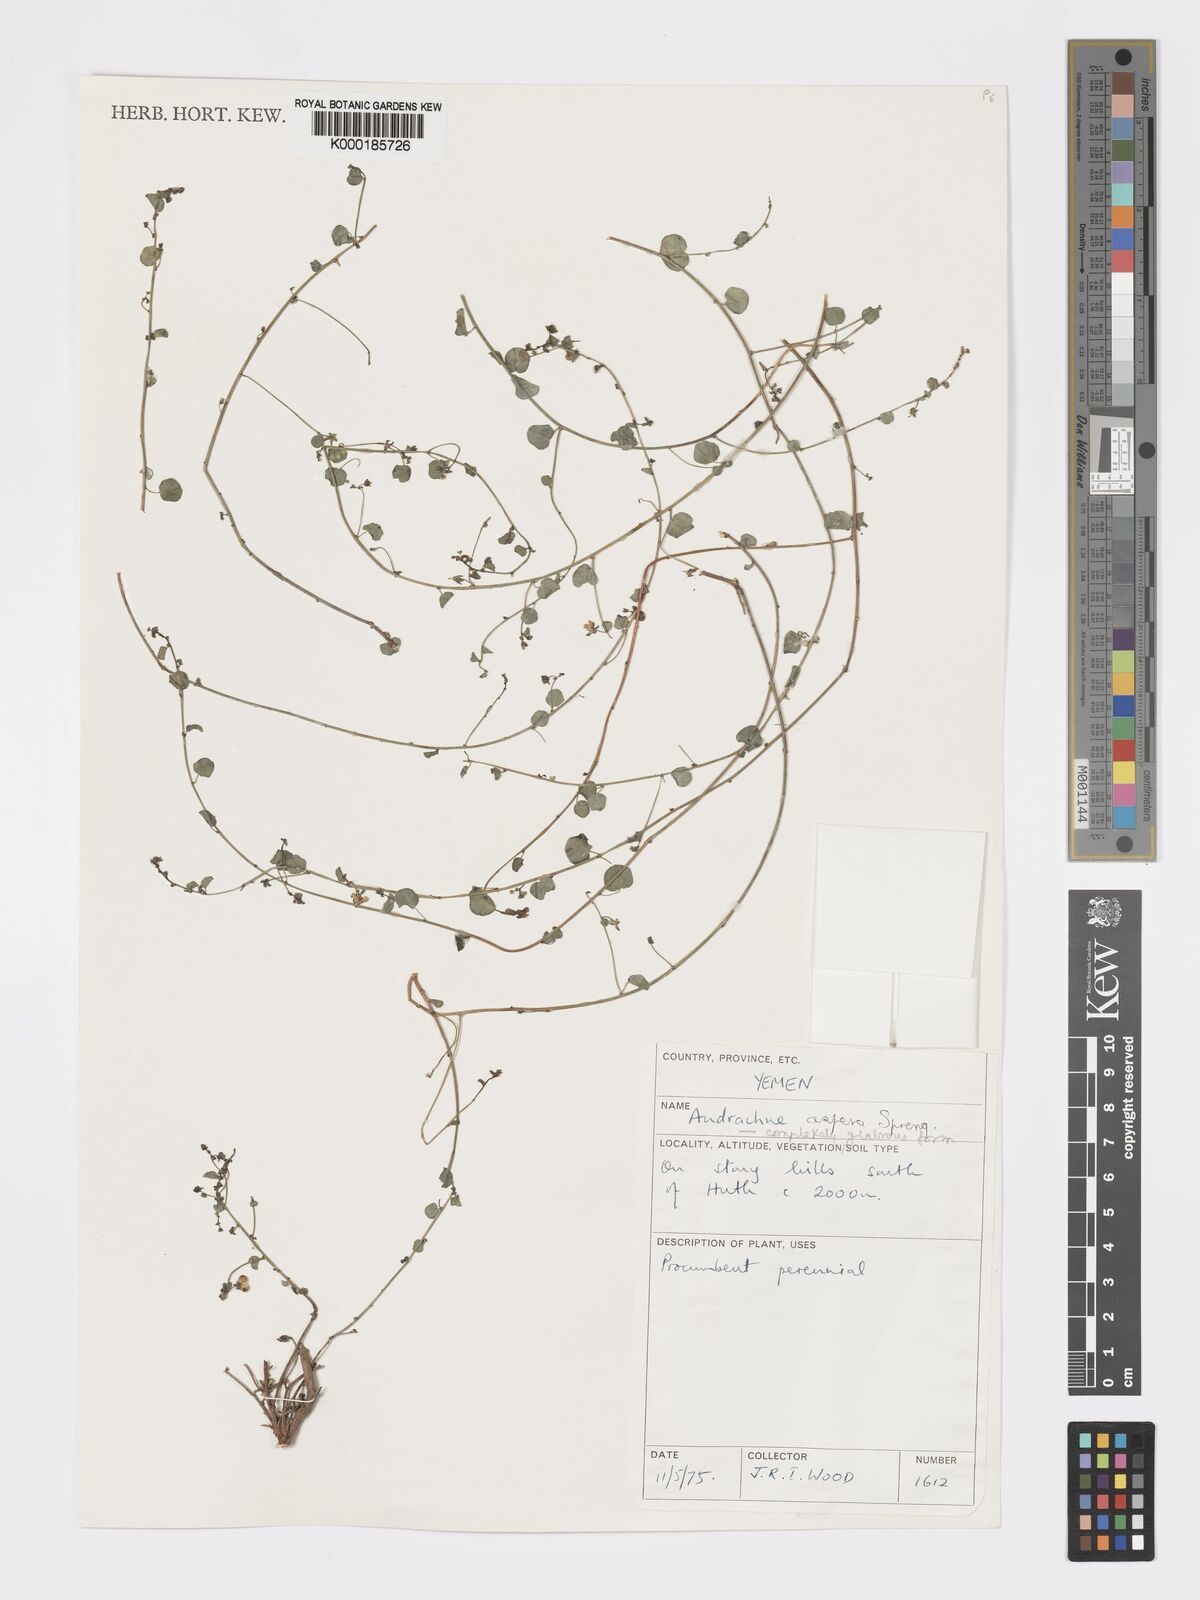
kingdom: Plantae
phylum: Tracheophyta
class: Magnoliopsida
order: Malpighiales
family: Phyllanthaceae
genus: Andrachne
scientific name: Andrachne aspera
